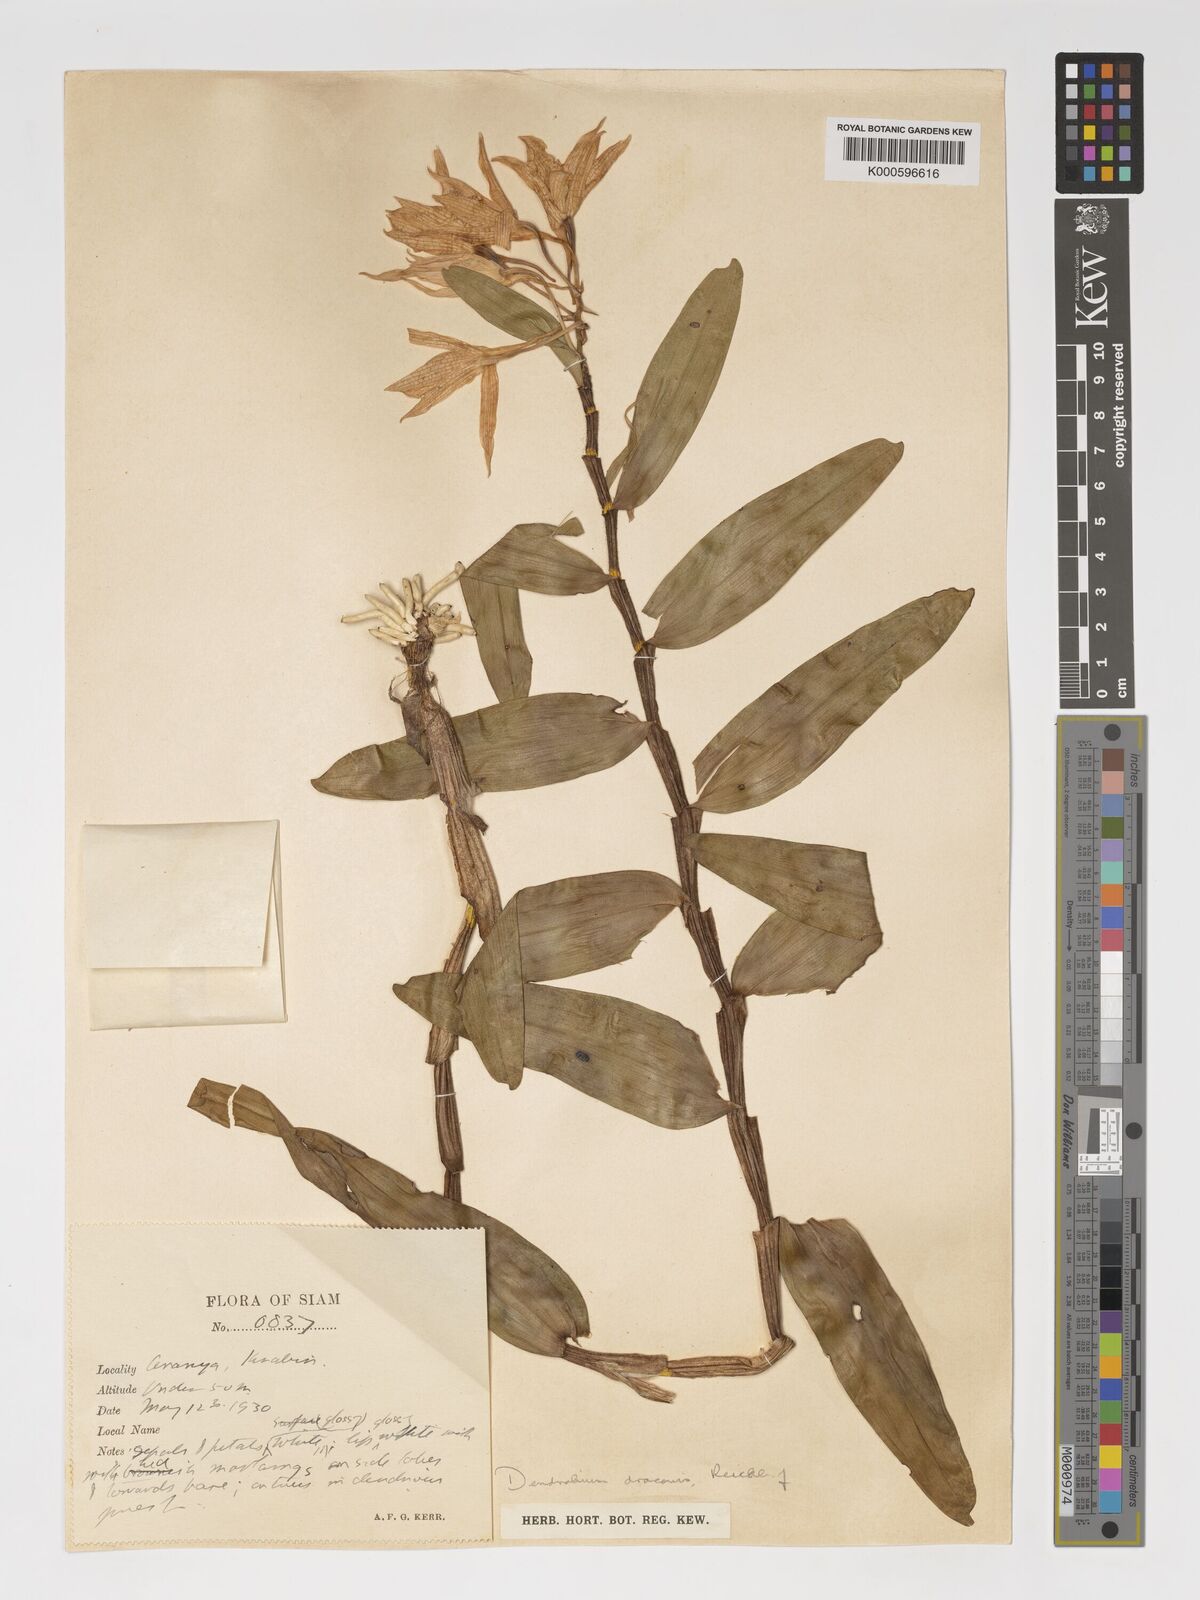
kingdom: Plantae
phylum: Tracheophyta
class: Liliopsida
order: Asparagales
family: Orchidaceae
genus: Dendrobium
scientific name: Dendrobium draconis
